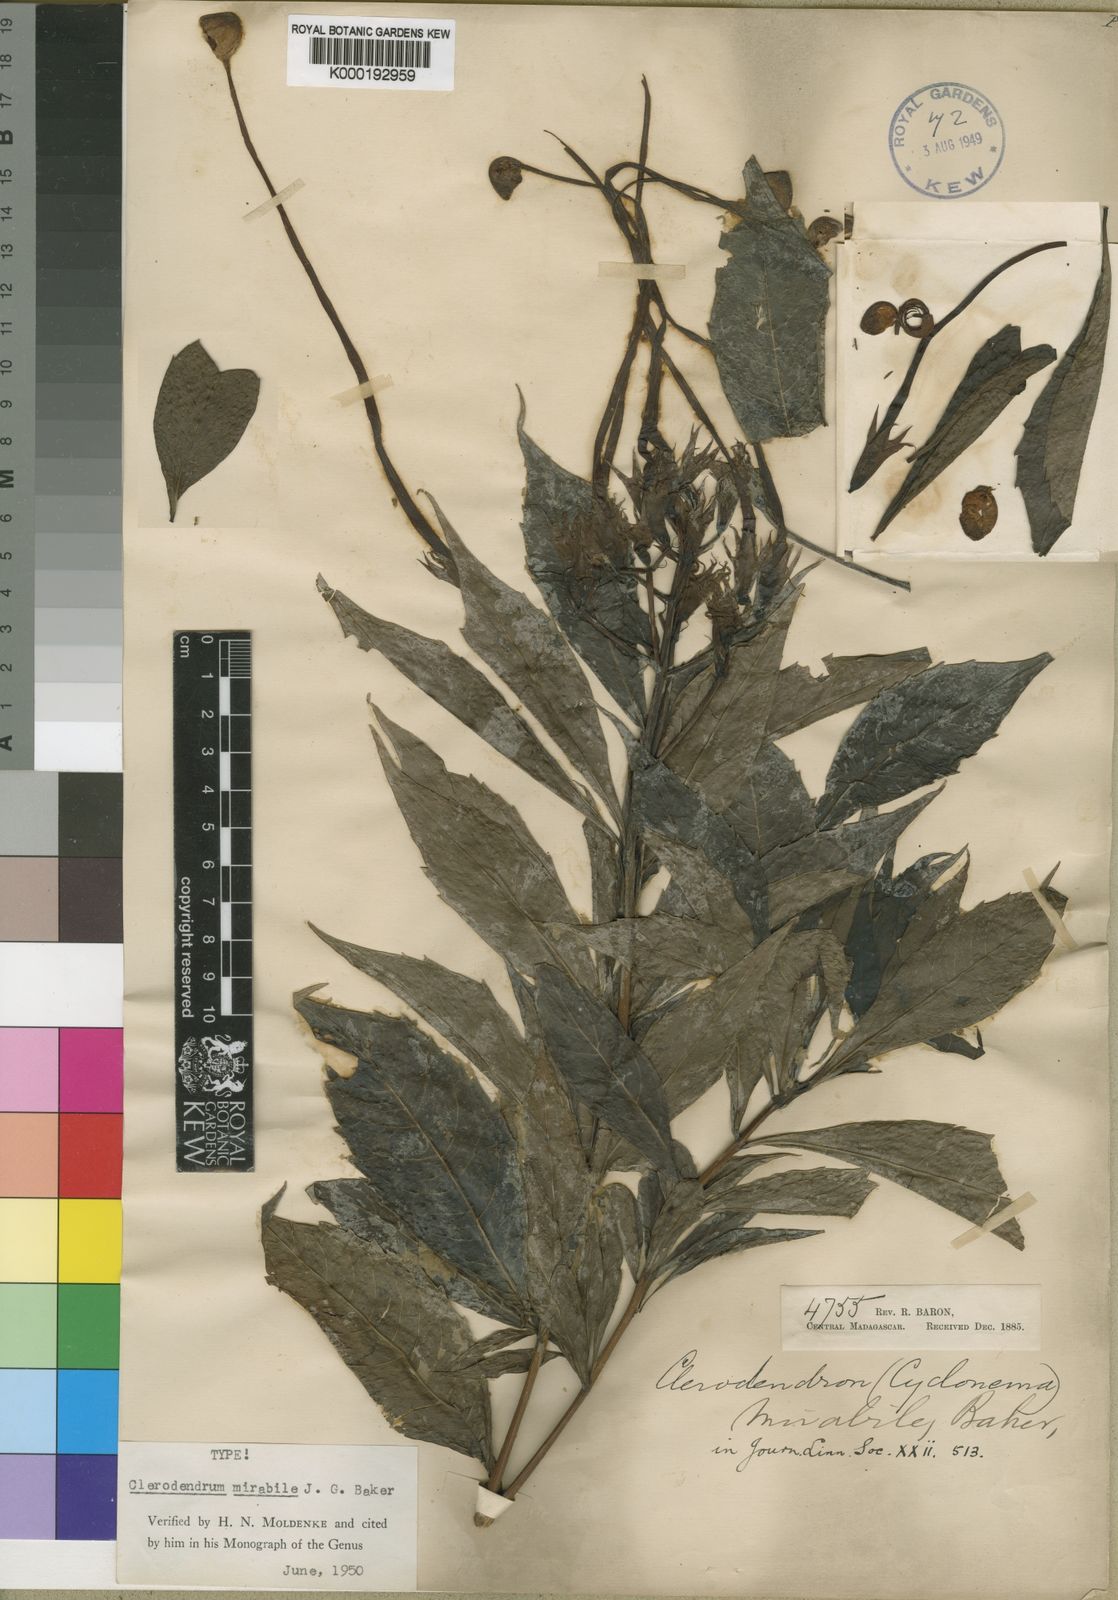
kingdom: Plantae
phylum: Tracheophyta
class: Magnoliopsida
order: Lamiales
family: Lamiaceae
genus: Rotheca
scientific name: Rotheca mirabilis
